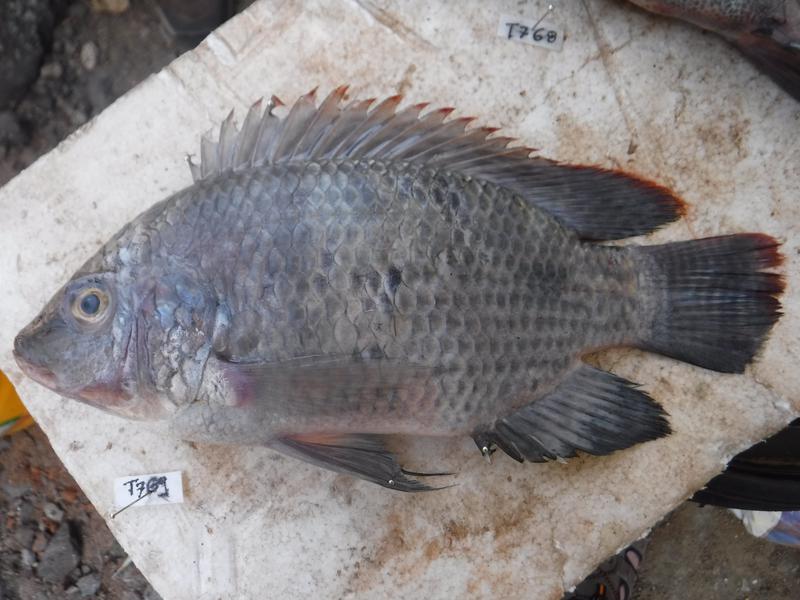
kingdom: Animalia
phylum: Chordata
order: Perciformes
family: Cichlidae
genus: Oreochromis
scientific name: Oreochromis urolepis
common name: Wami tilapia
